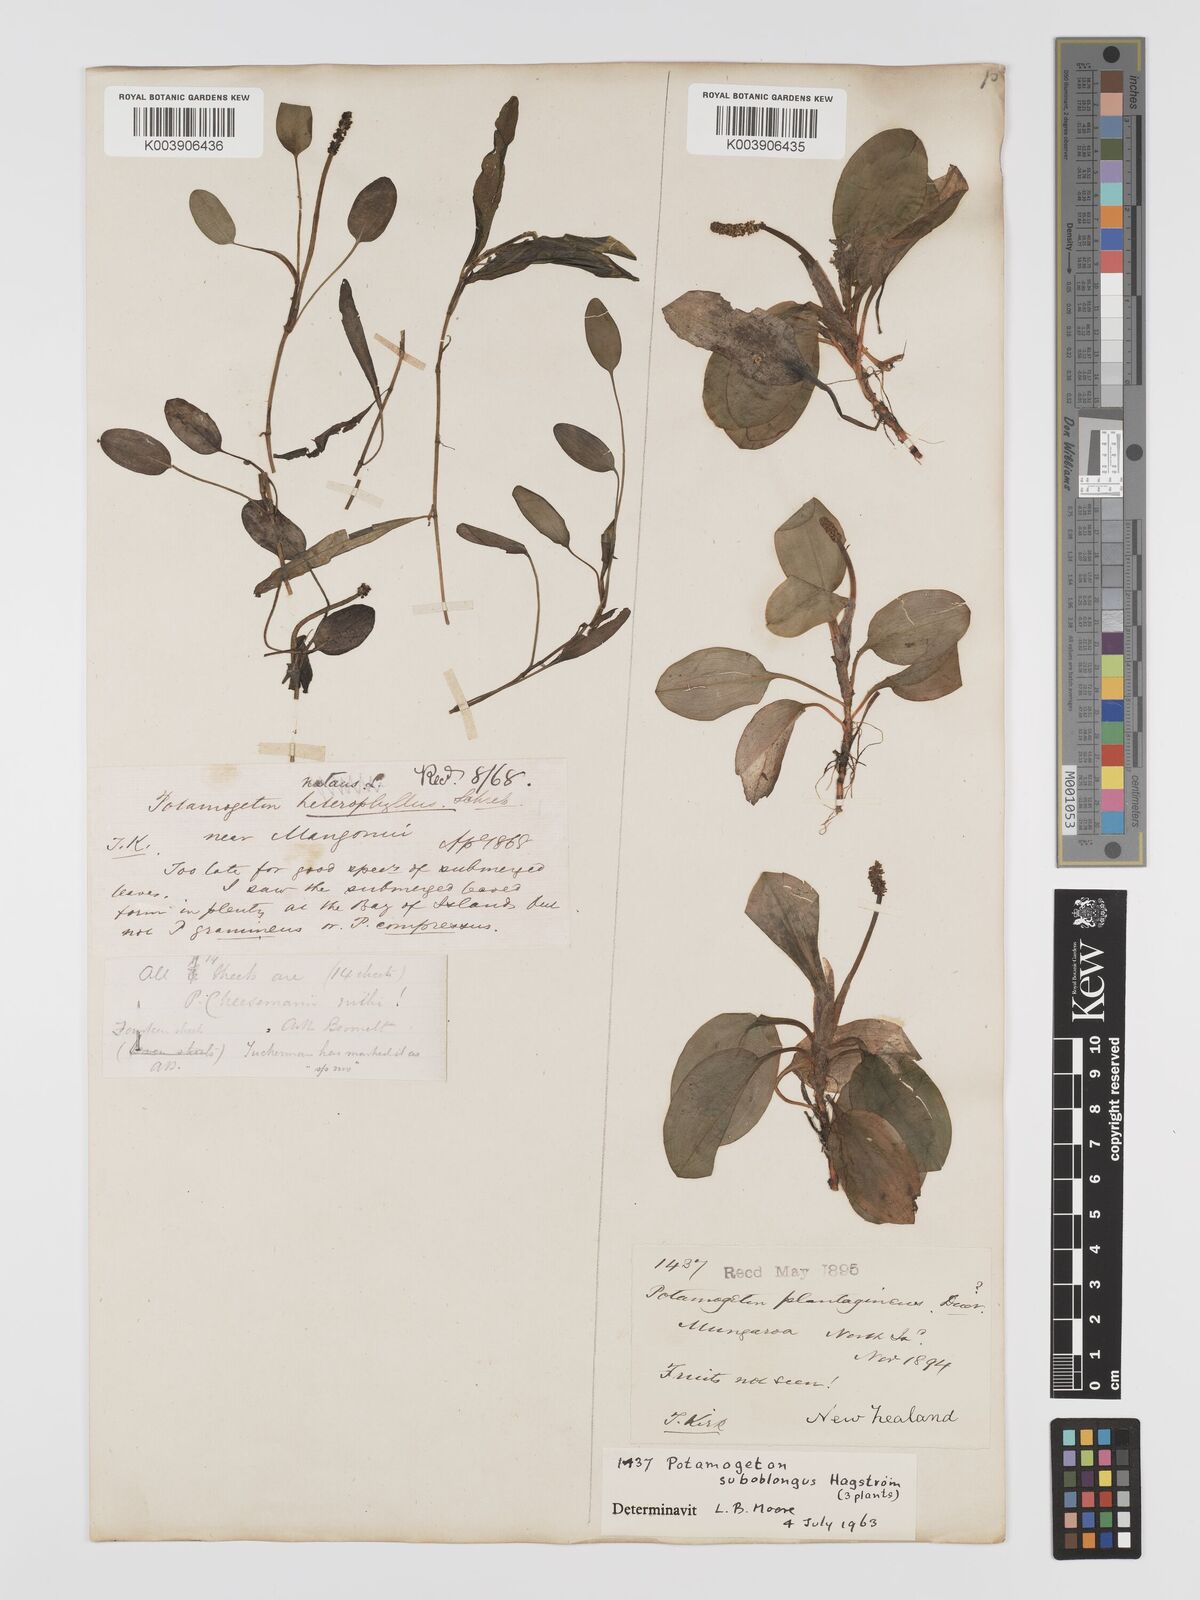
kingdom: Plantae
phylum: Tracheophyta
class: Liliopsida
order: Alismatales
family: Potamogetonaceae
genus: Potamogeton
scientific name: Potamogeton cheesemanii
